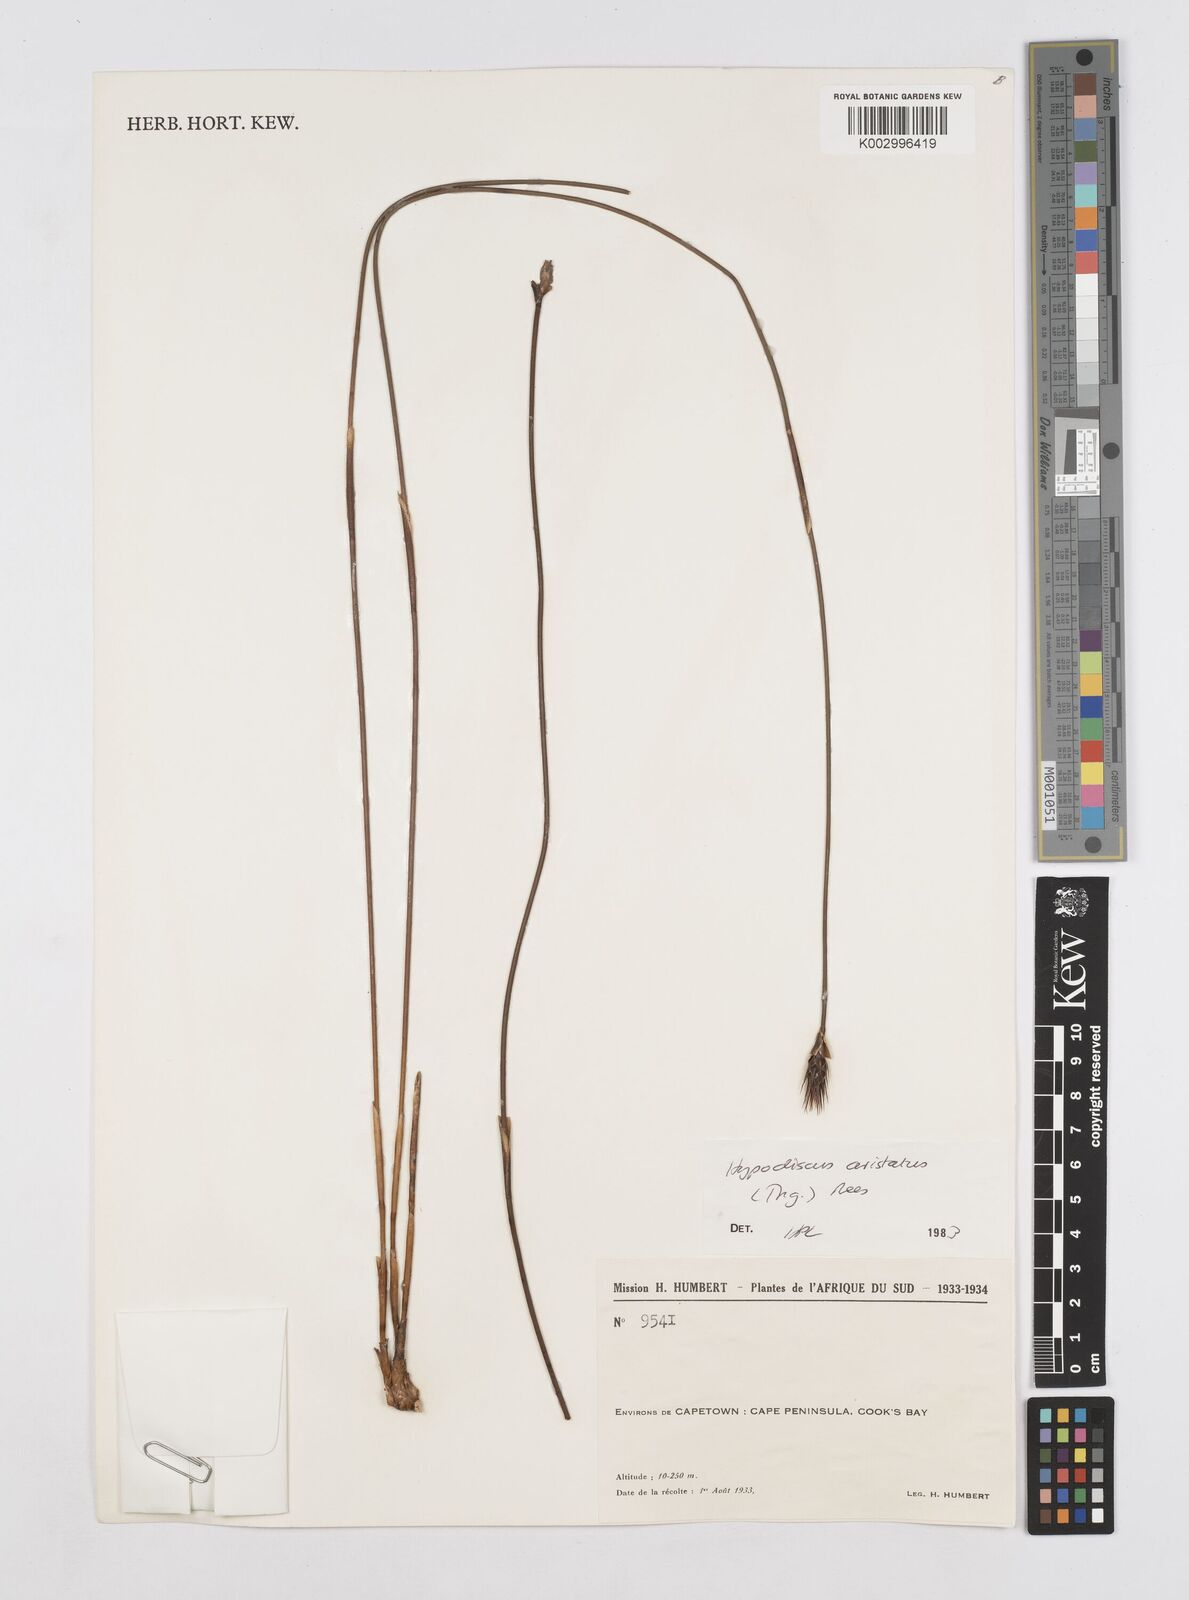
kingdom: Plantae
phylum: Tracheophyta
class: Liliopsida
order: Poales
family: Restionaceae
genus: Hypodiscus
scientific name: Hypodiscus aristatus
